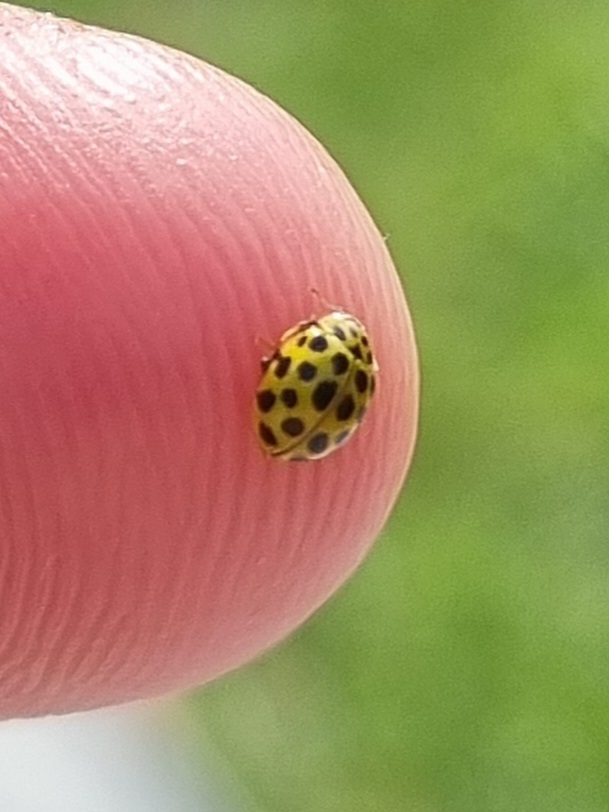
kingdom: Animalia
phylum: Arthropoda
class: Insecta
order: Coleoptera
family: Coccinellidae
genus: Psyllobora
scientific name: Psyllobora vigintiduopunctata
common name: Toogtyveplettet mariehøne
